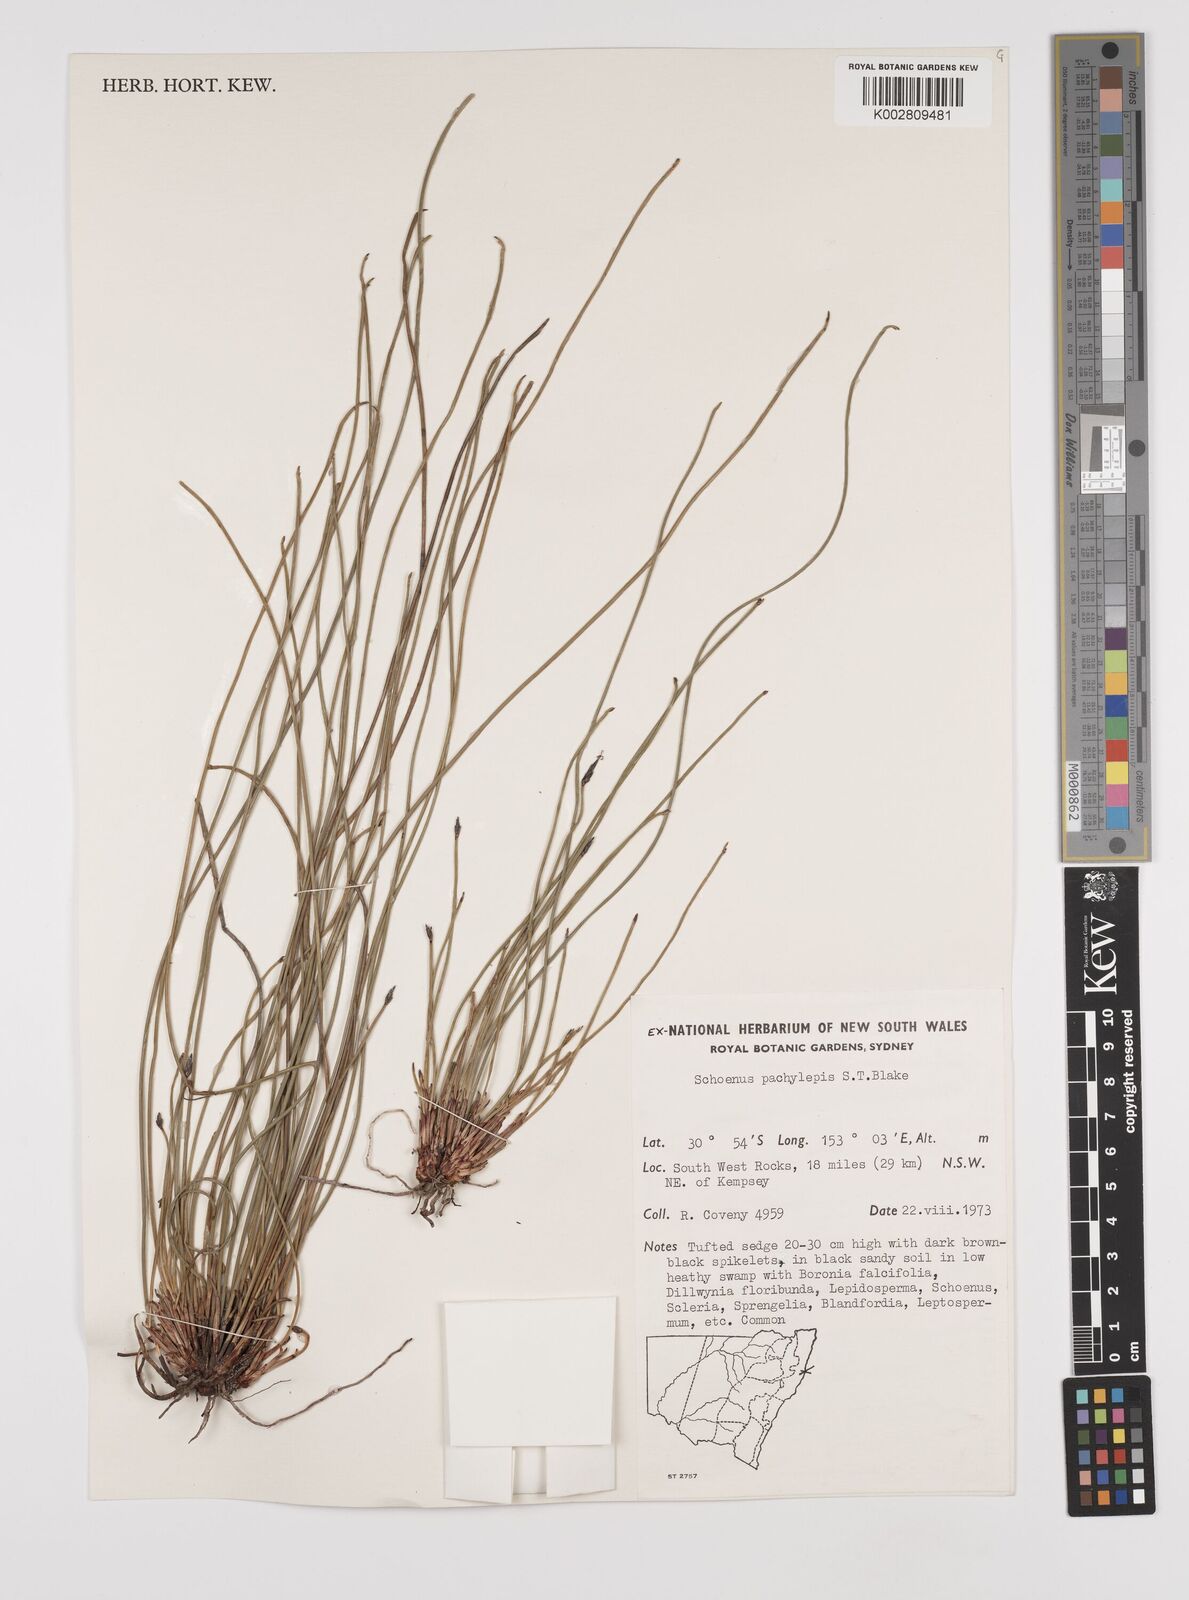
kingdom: Plantae
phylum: Tracheophyta
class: Liliopsida
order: Poales
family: Cyperaceae
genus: Schoenus
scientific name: Schoenus lepidosperma
